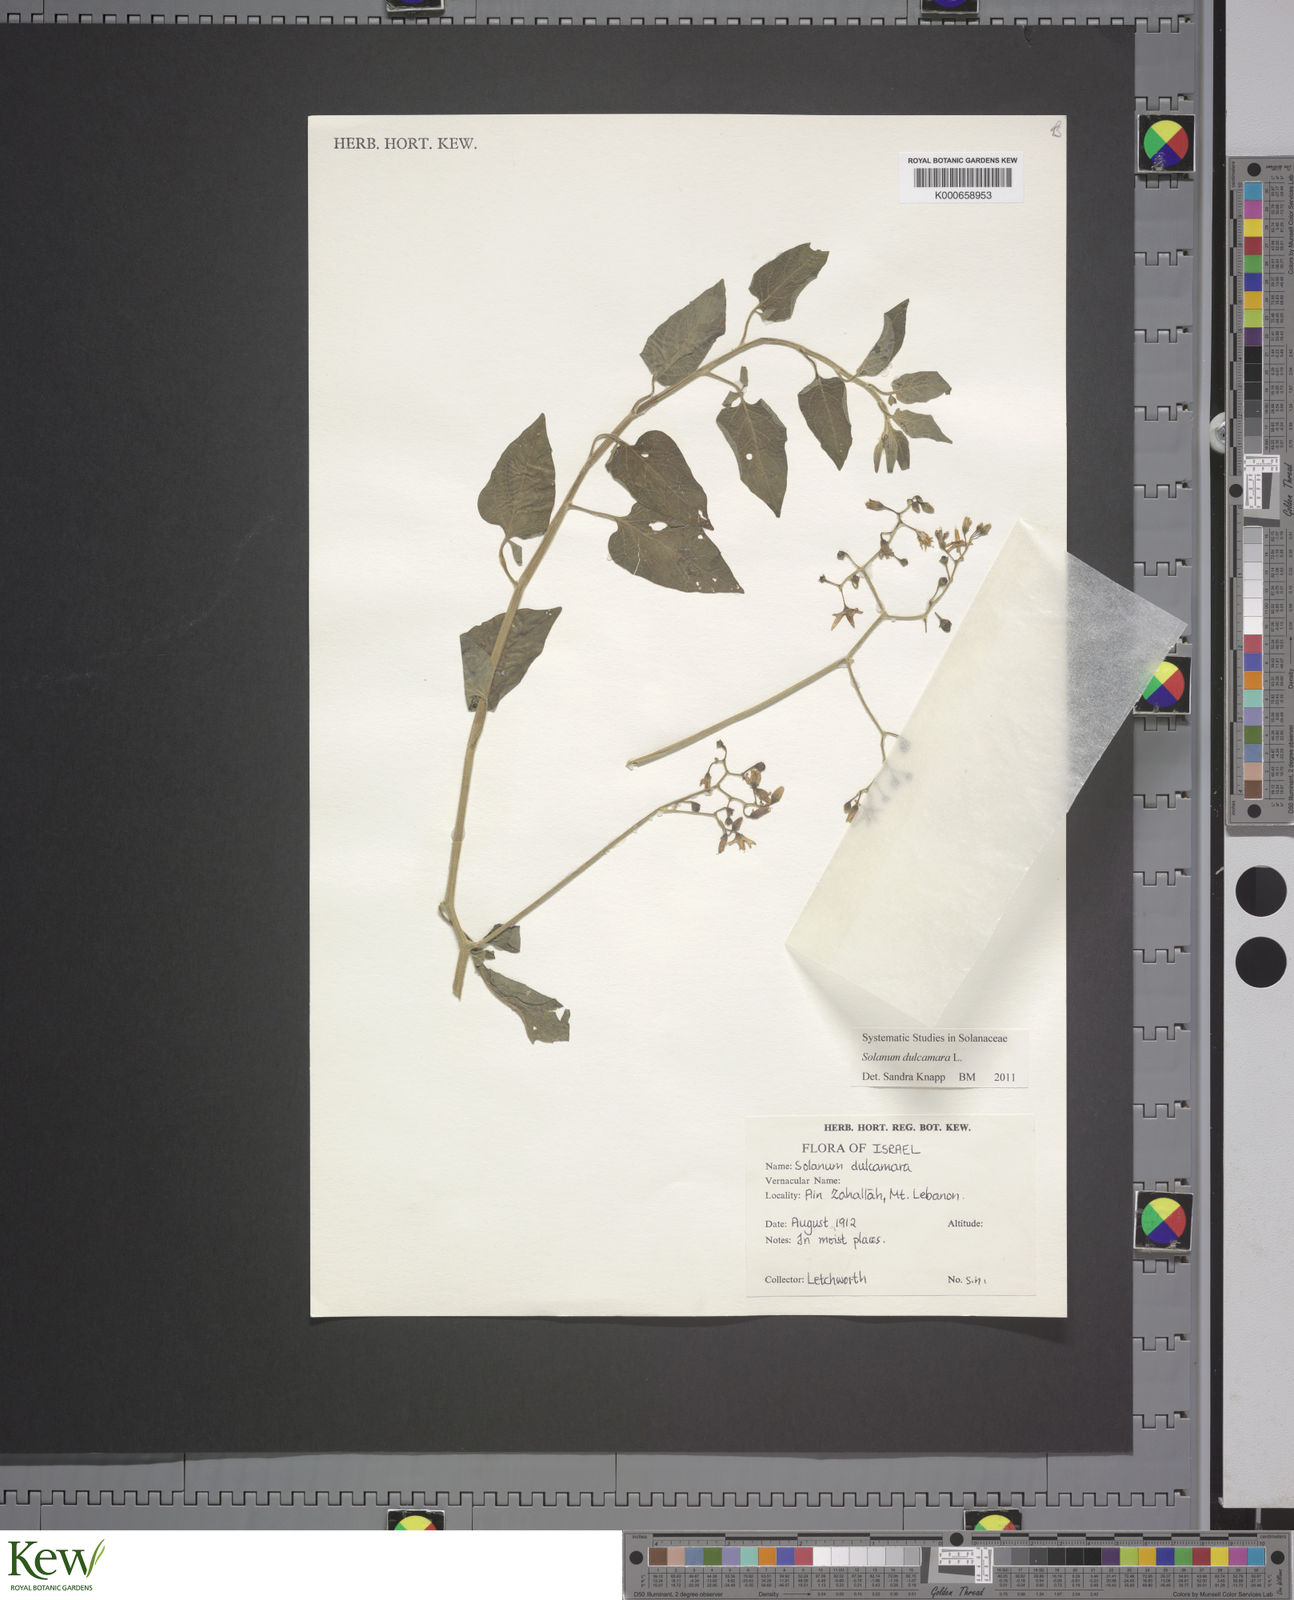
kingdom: Plantae
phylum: Tracheophyta
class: Magnoliopsida
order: Solanales
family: Solanaceae
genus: Solanum
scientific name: Solanum dulcamara
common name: Climbing nightshade
